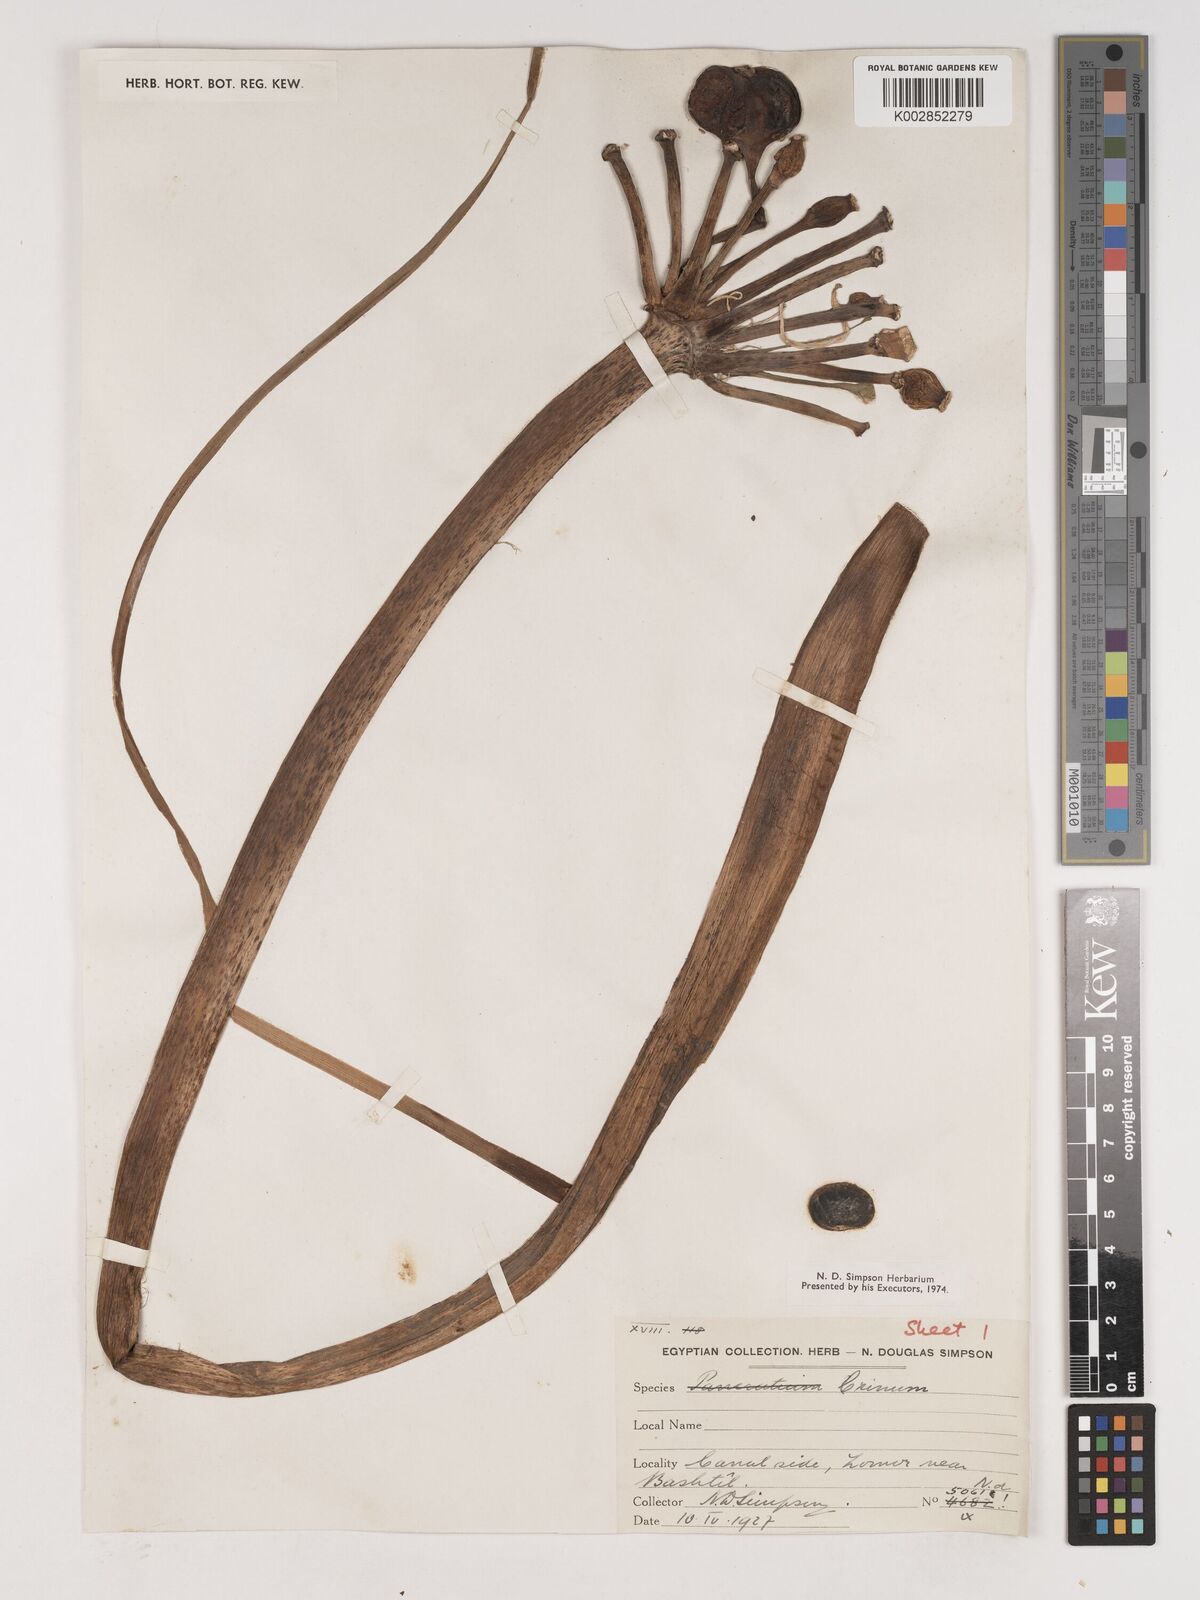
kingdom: Plantae
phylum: Tracheophyta
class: Liliopsida
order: Asparagales
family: Amaryllidaceae
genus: Crinum
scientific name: Crinum
